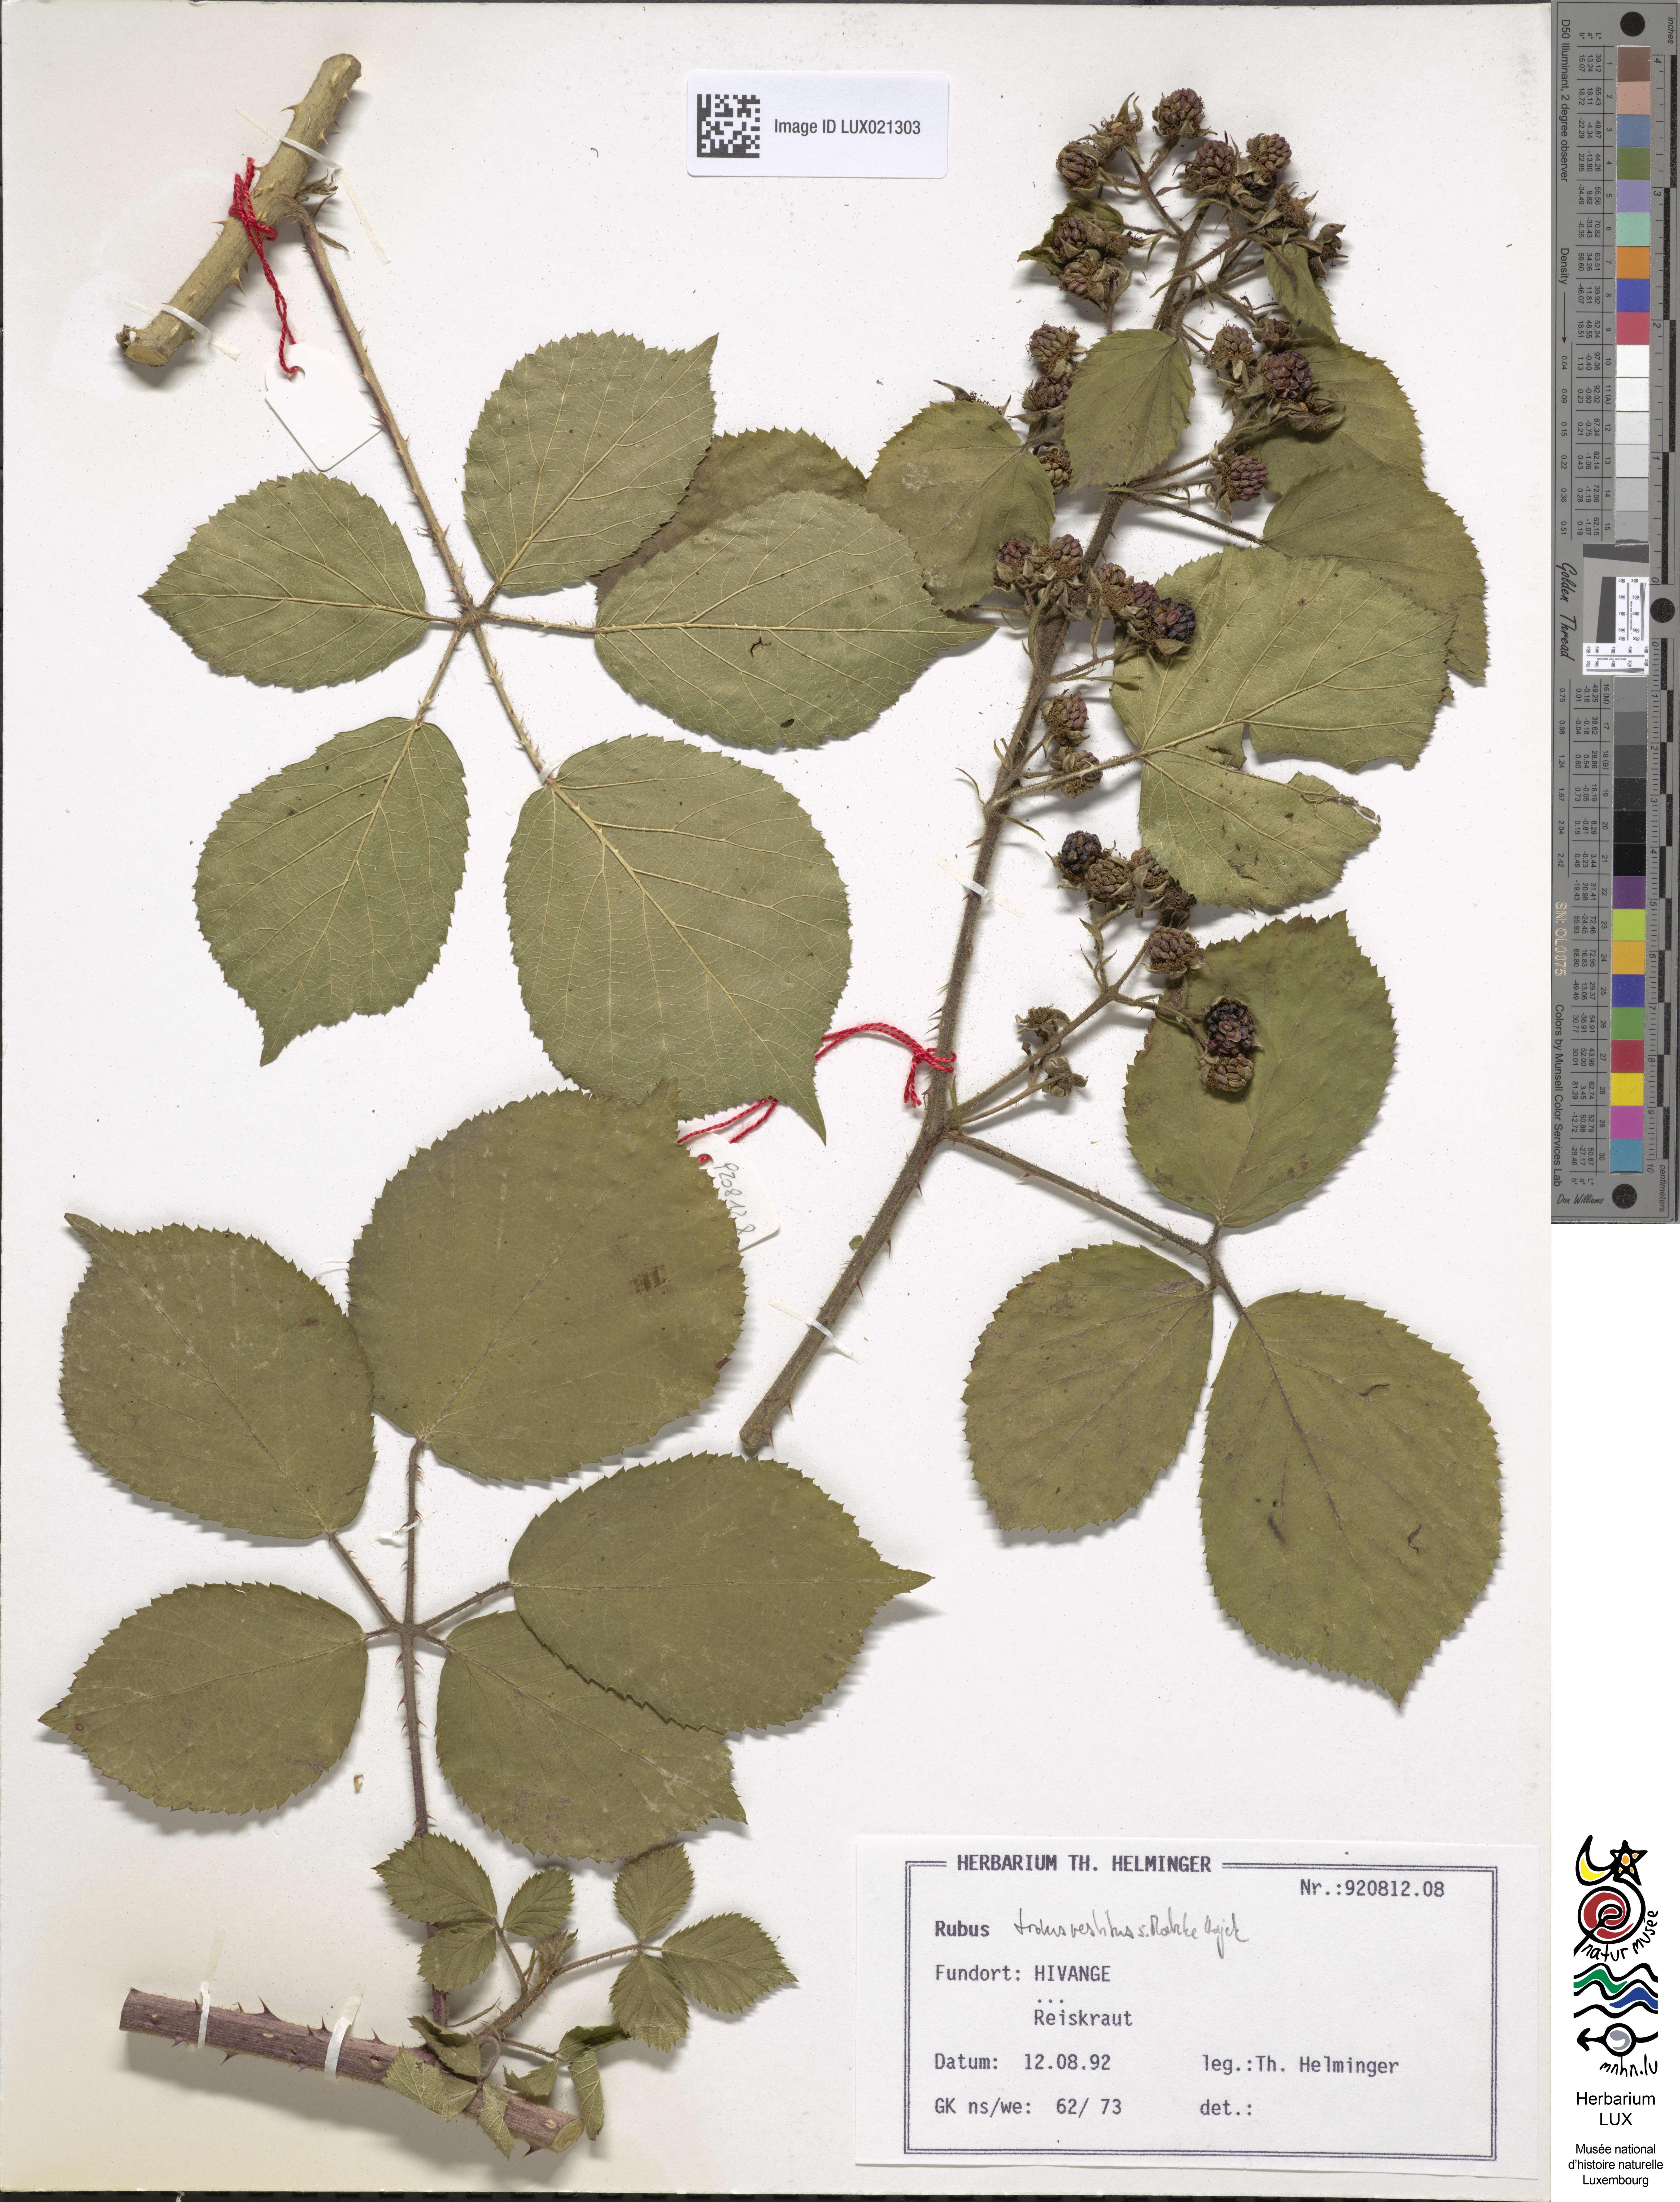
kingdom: Plantae
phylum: Tracheophyta
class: Magnoliopsida
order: Rosales
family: Rosaceae
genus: Rubus
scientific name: Rubus transvestitus
